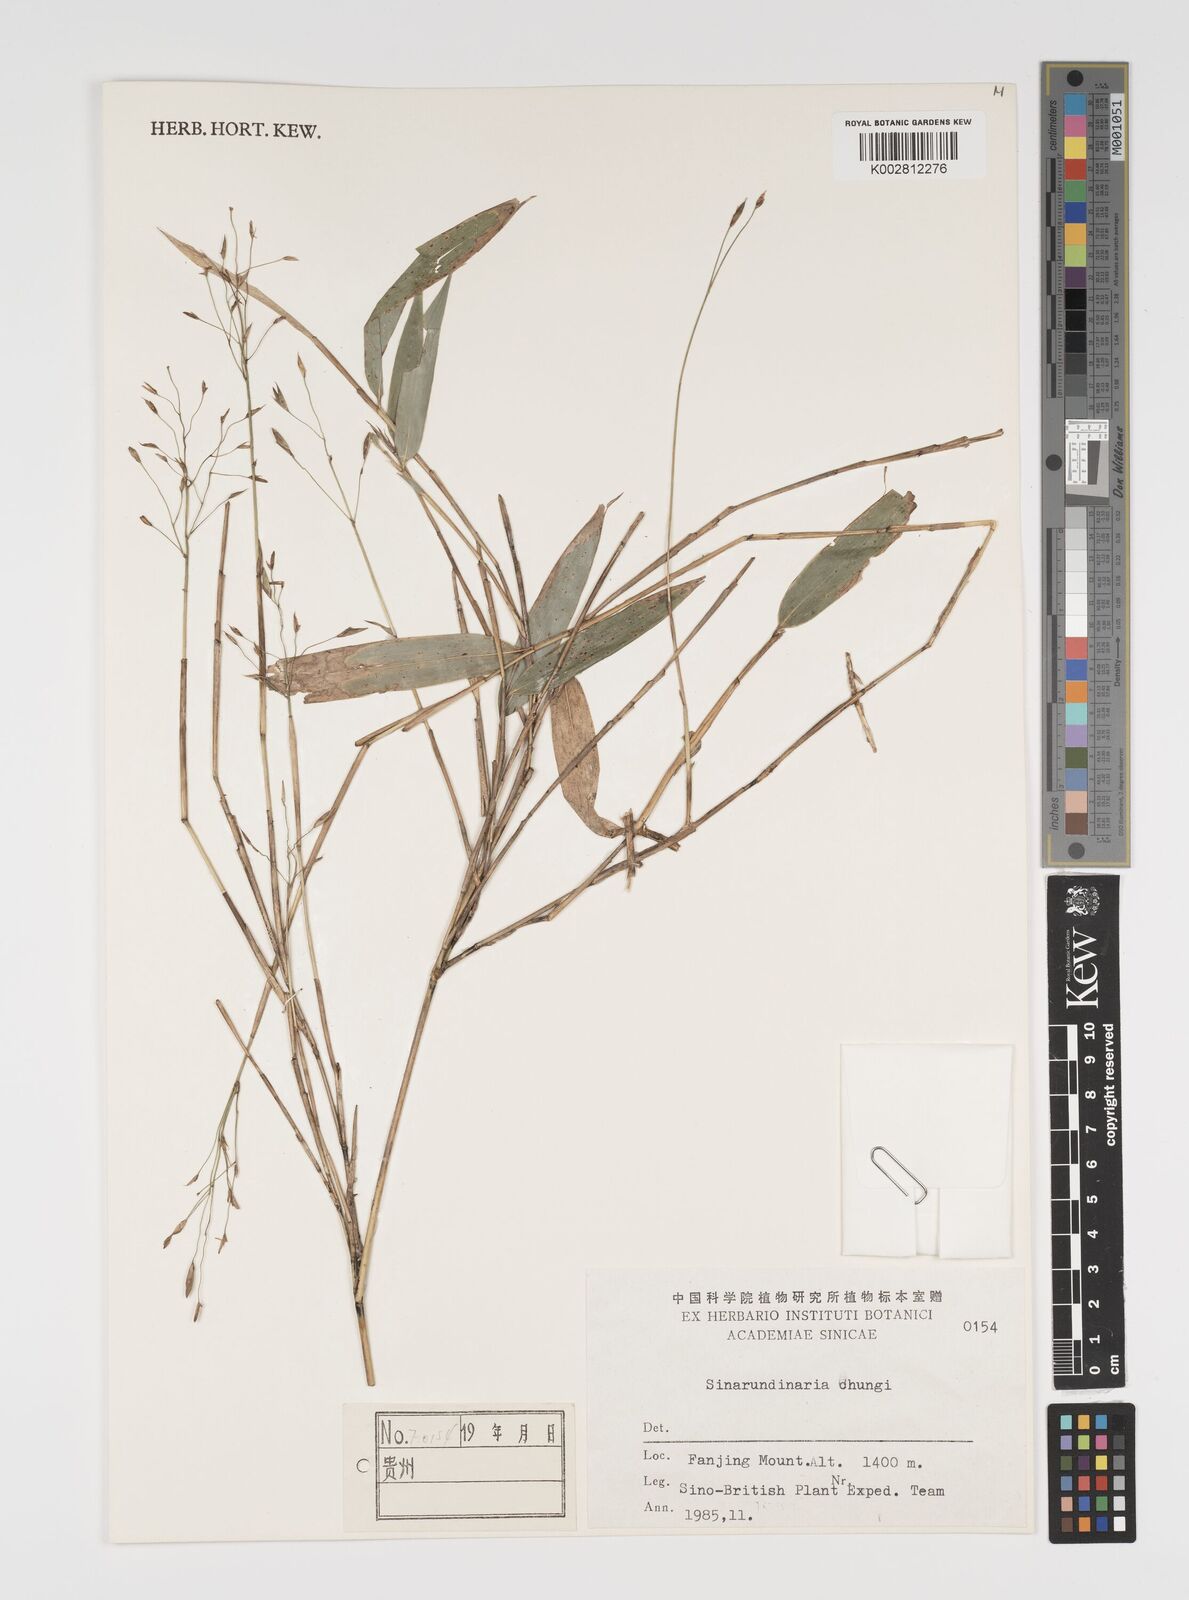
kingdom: Plantae
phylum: Tracheophyta
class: Liliopsida
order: Poales
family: Poaceae
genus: Yushania
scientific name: Yushania brevipaniculata
